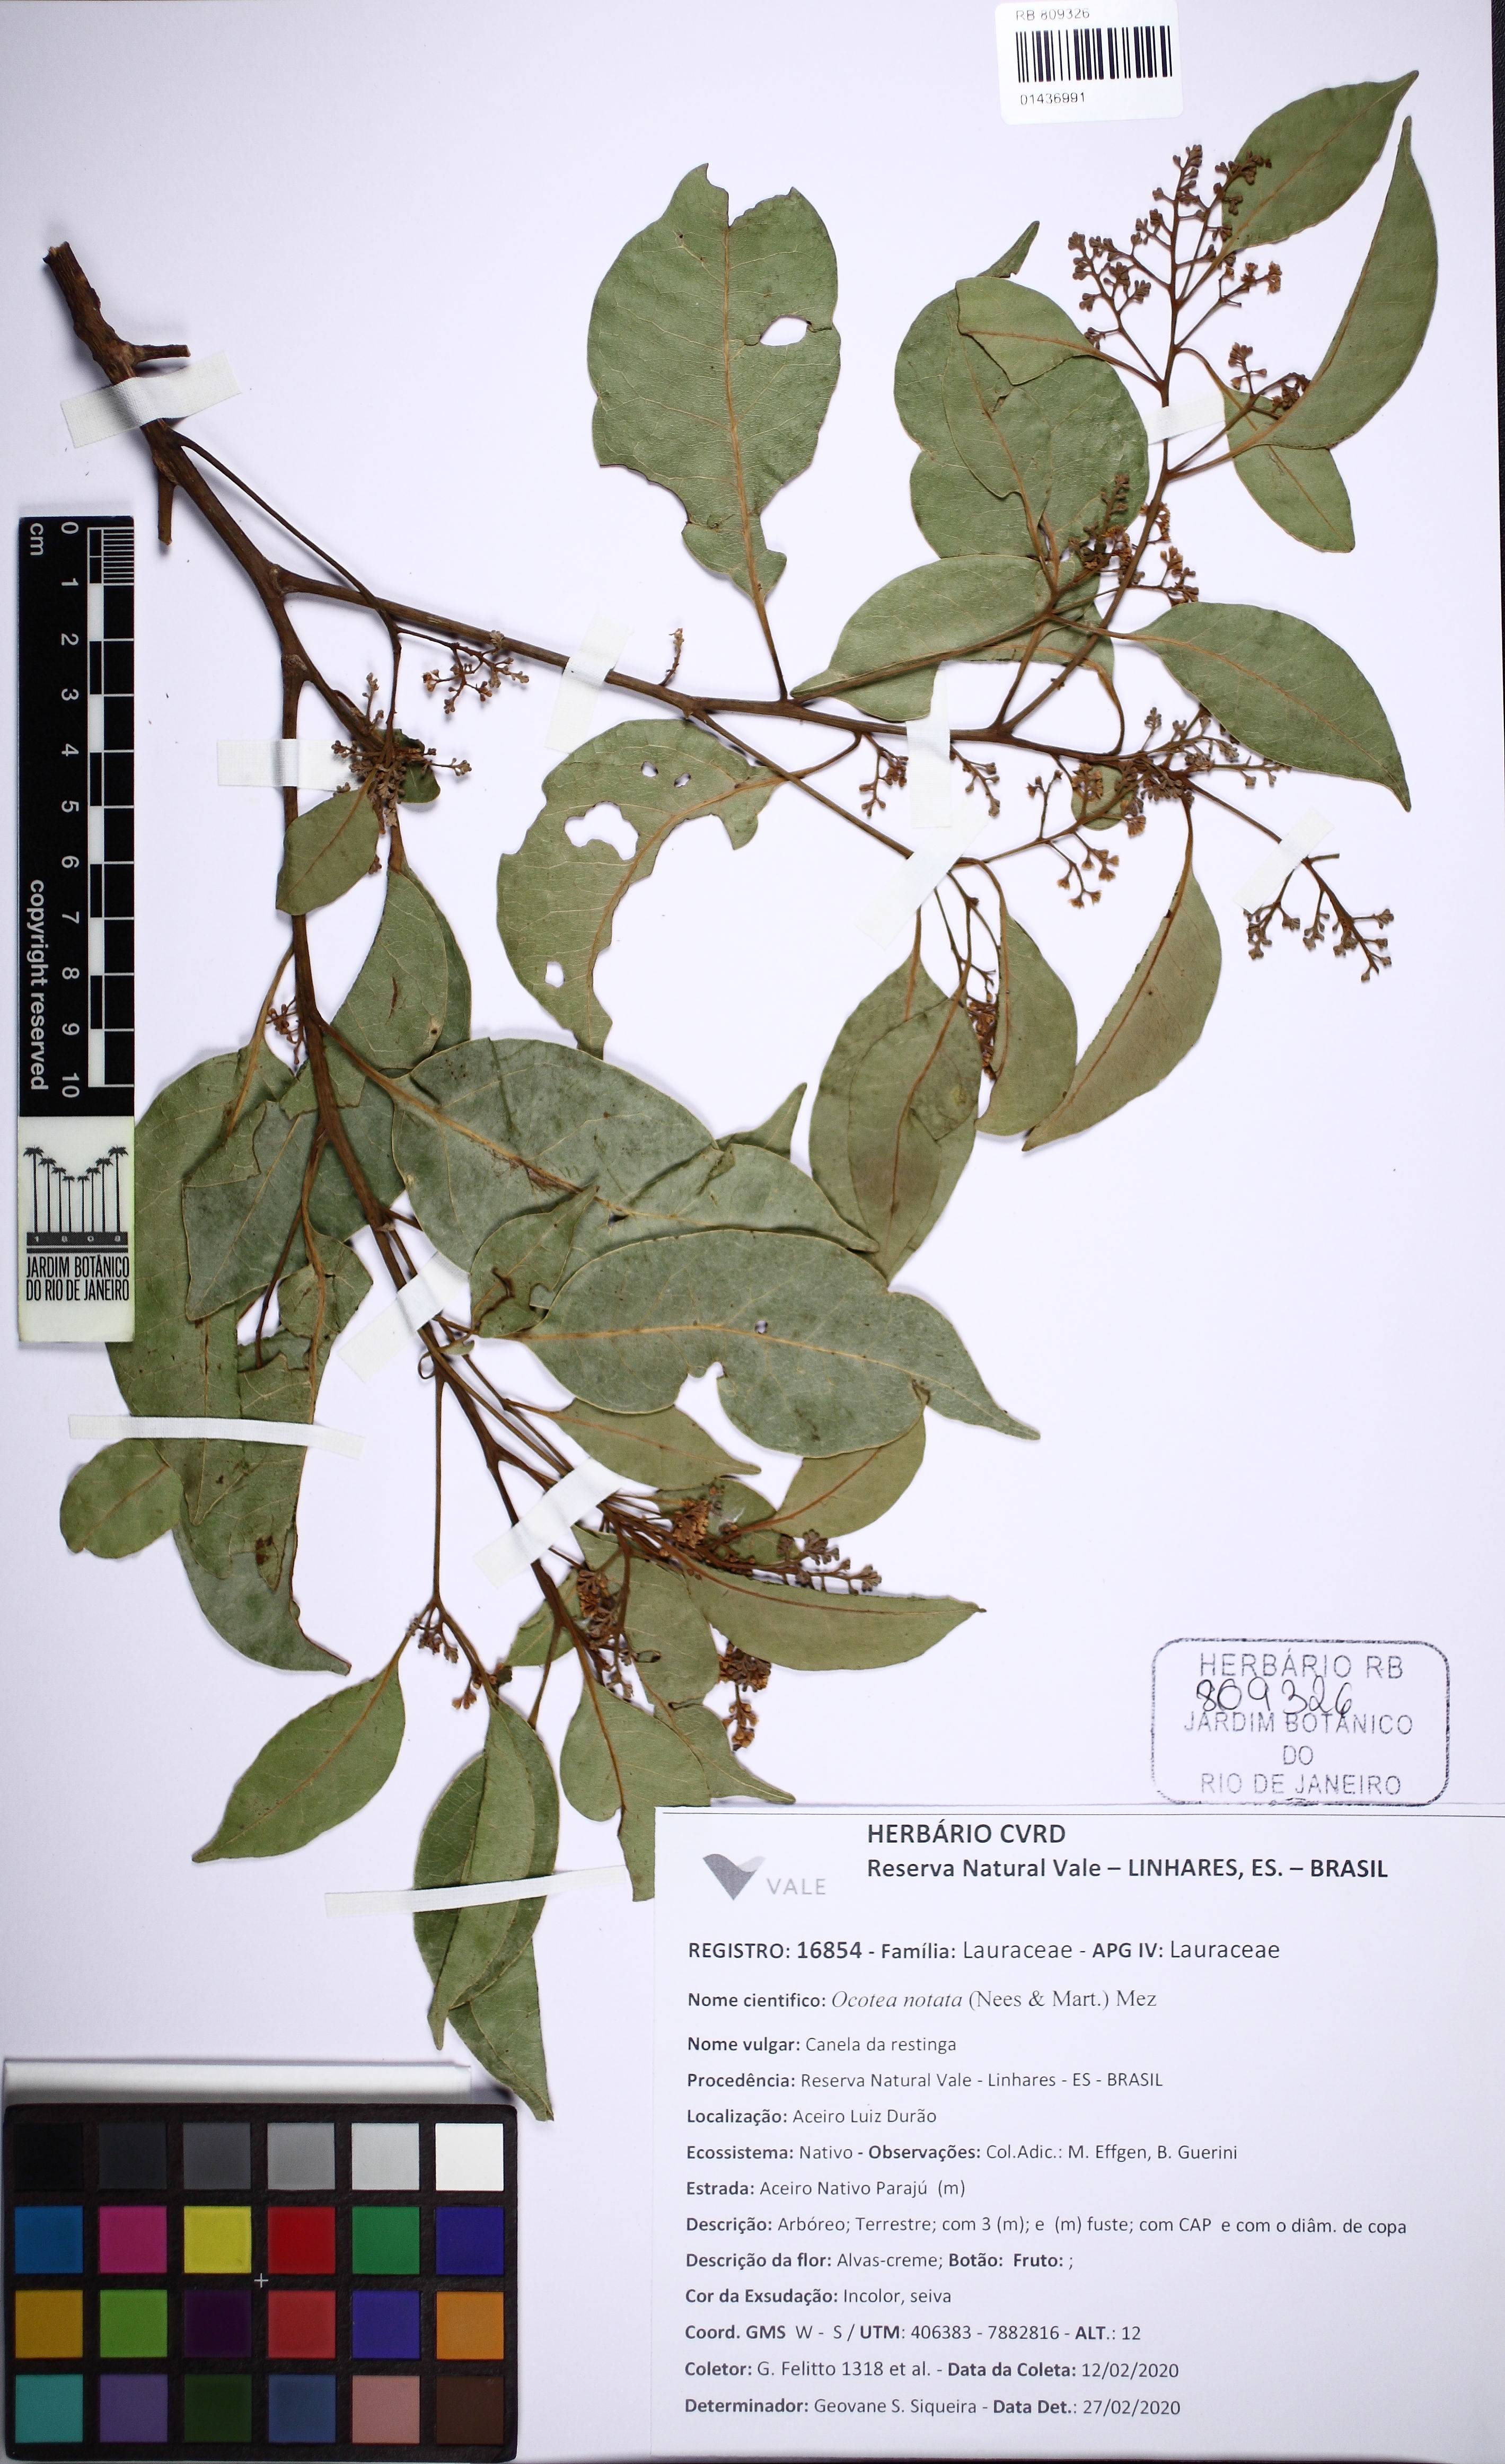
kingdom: Plantae
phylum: Tracheophyta
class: Magnoliopsida
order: Laurales
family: Lauraceae
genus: Mespilodaphne
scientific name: Mespilodaphne notata
